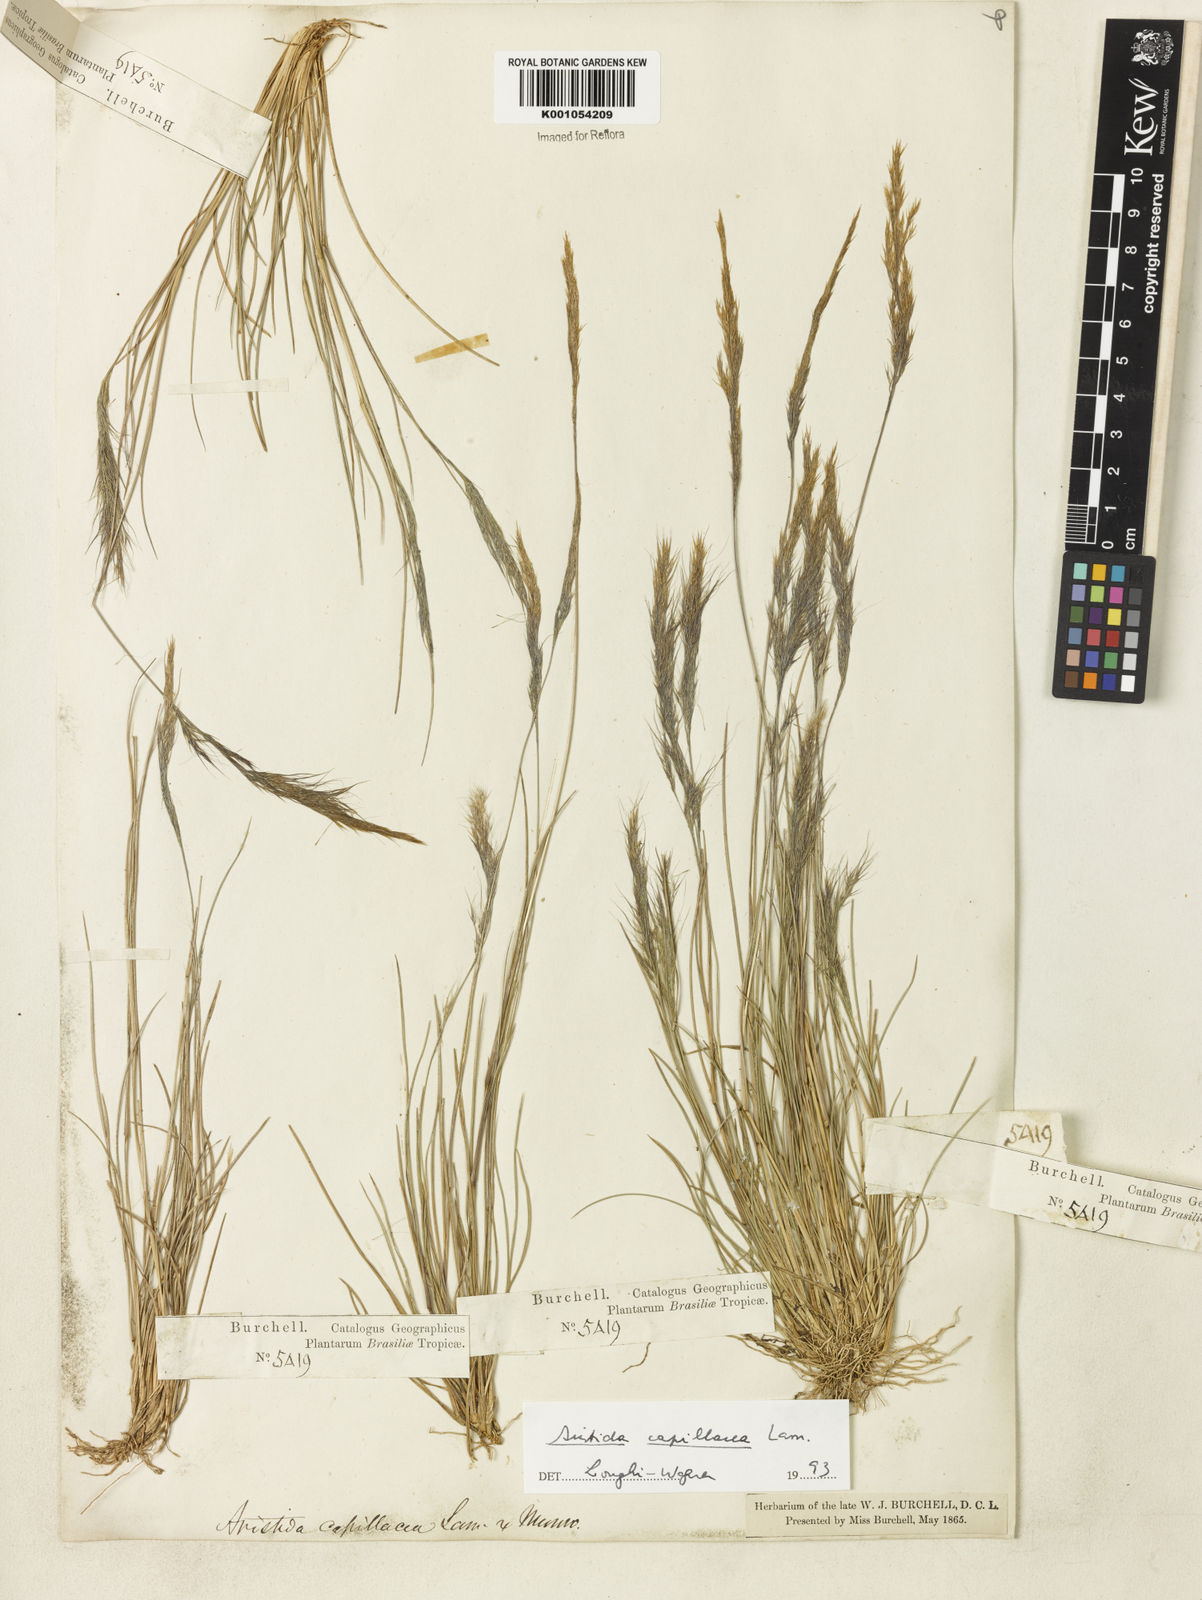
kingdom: Plantae
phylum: Tracheophyta
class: Liliopsida
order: Poales
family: Poaceae
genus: Aristida
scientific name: Aristida capillacea
